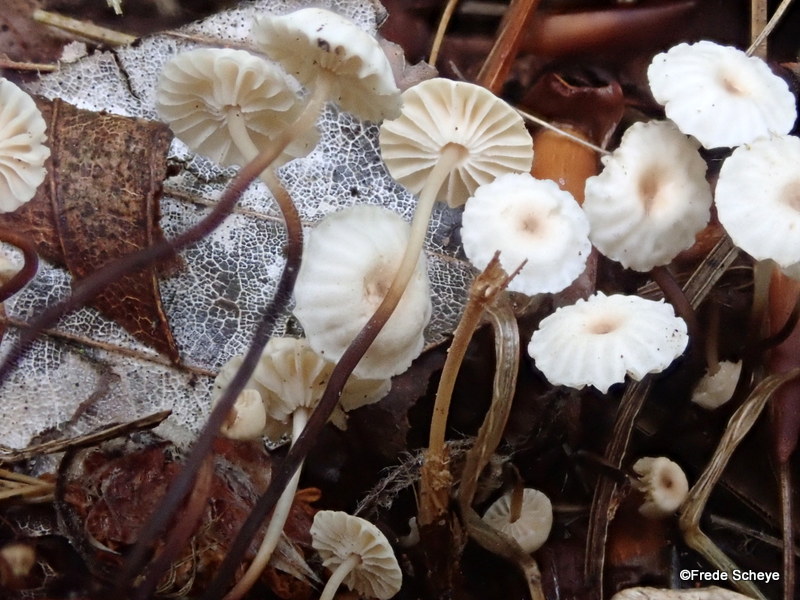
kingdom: Fungi
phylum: Basidiomycota
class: Agaricomycetes
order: Agaricales
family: Marasmiaceae
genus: Marasmius
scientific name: Marasmius rotula
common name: hjul-bruskhat
